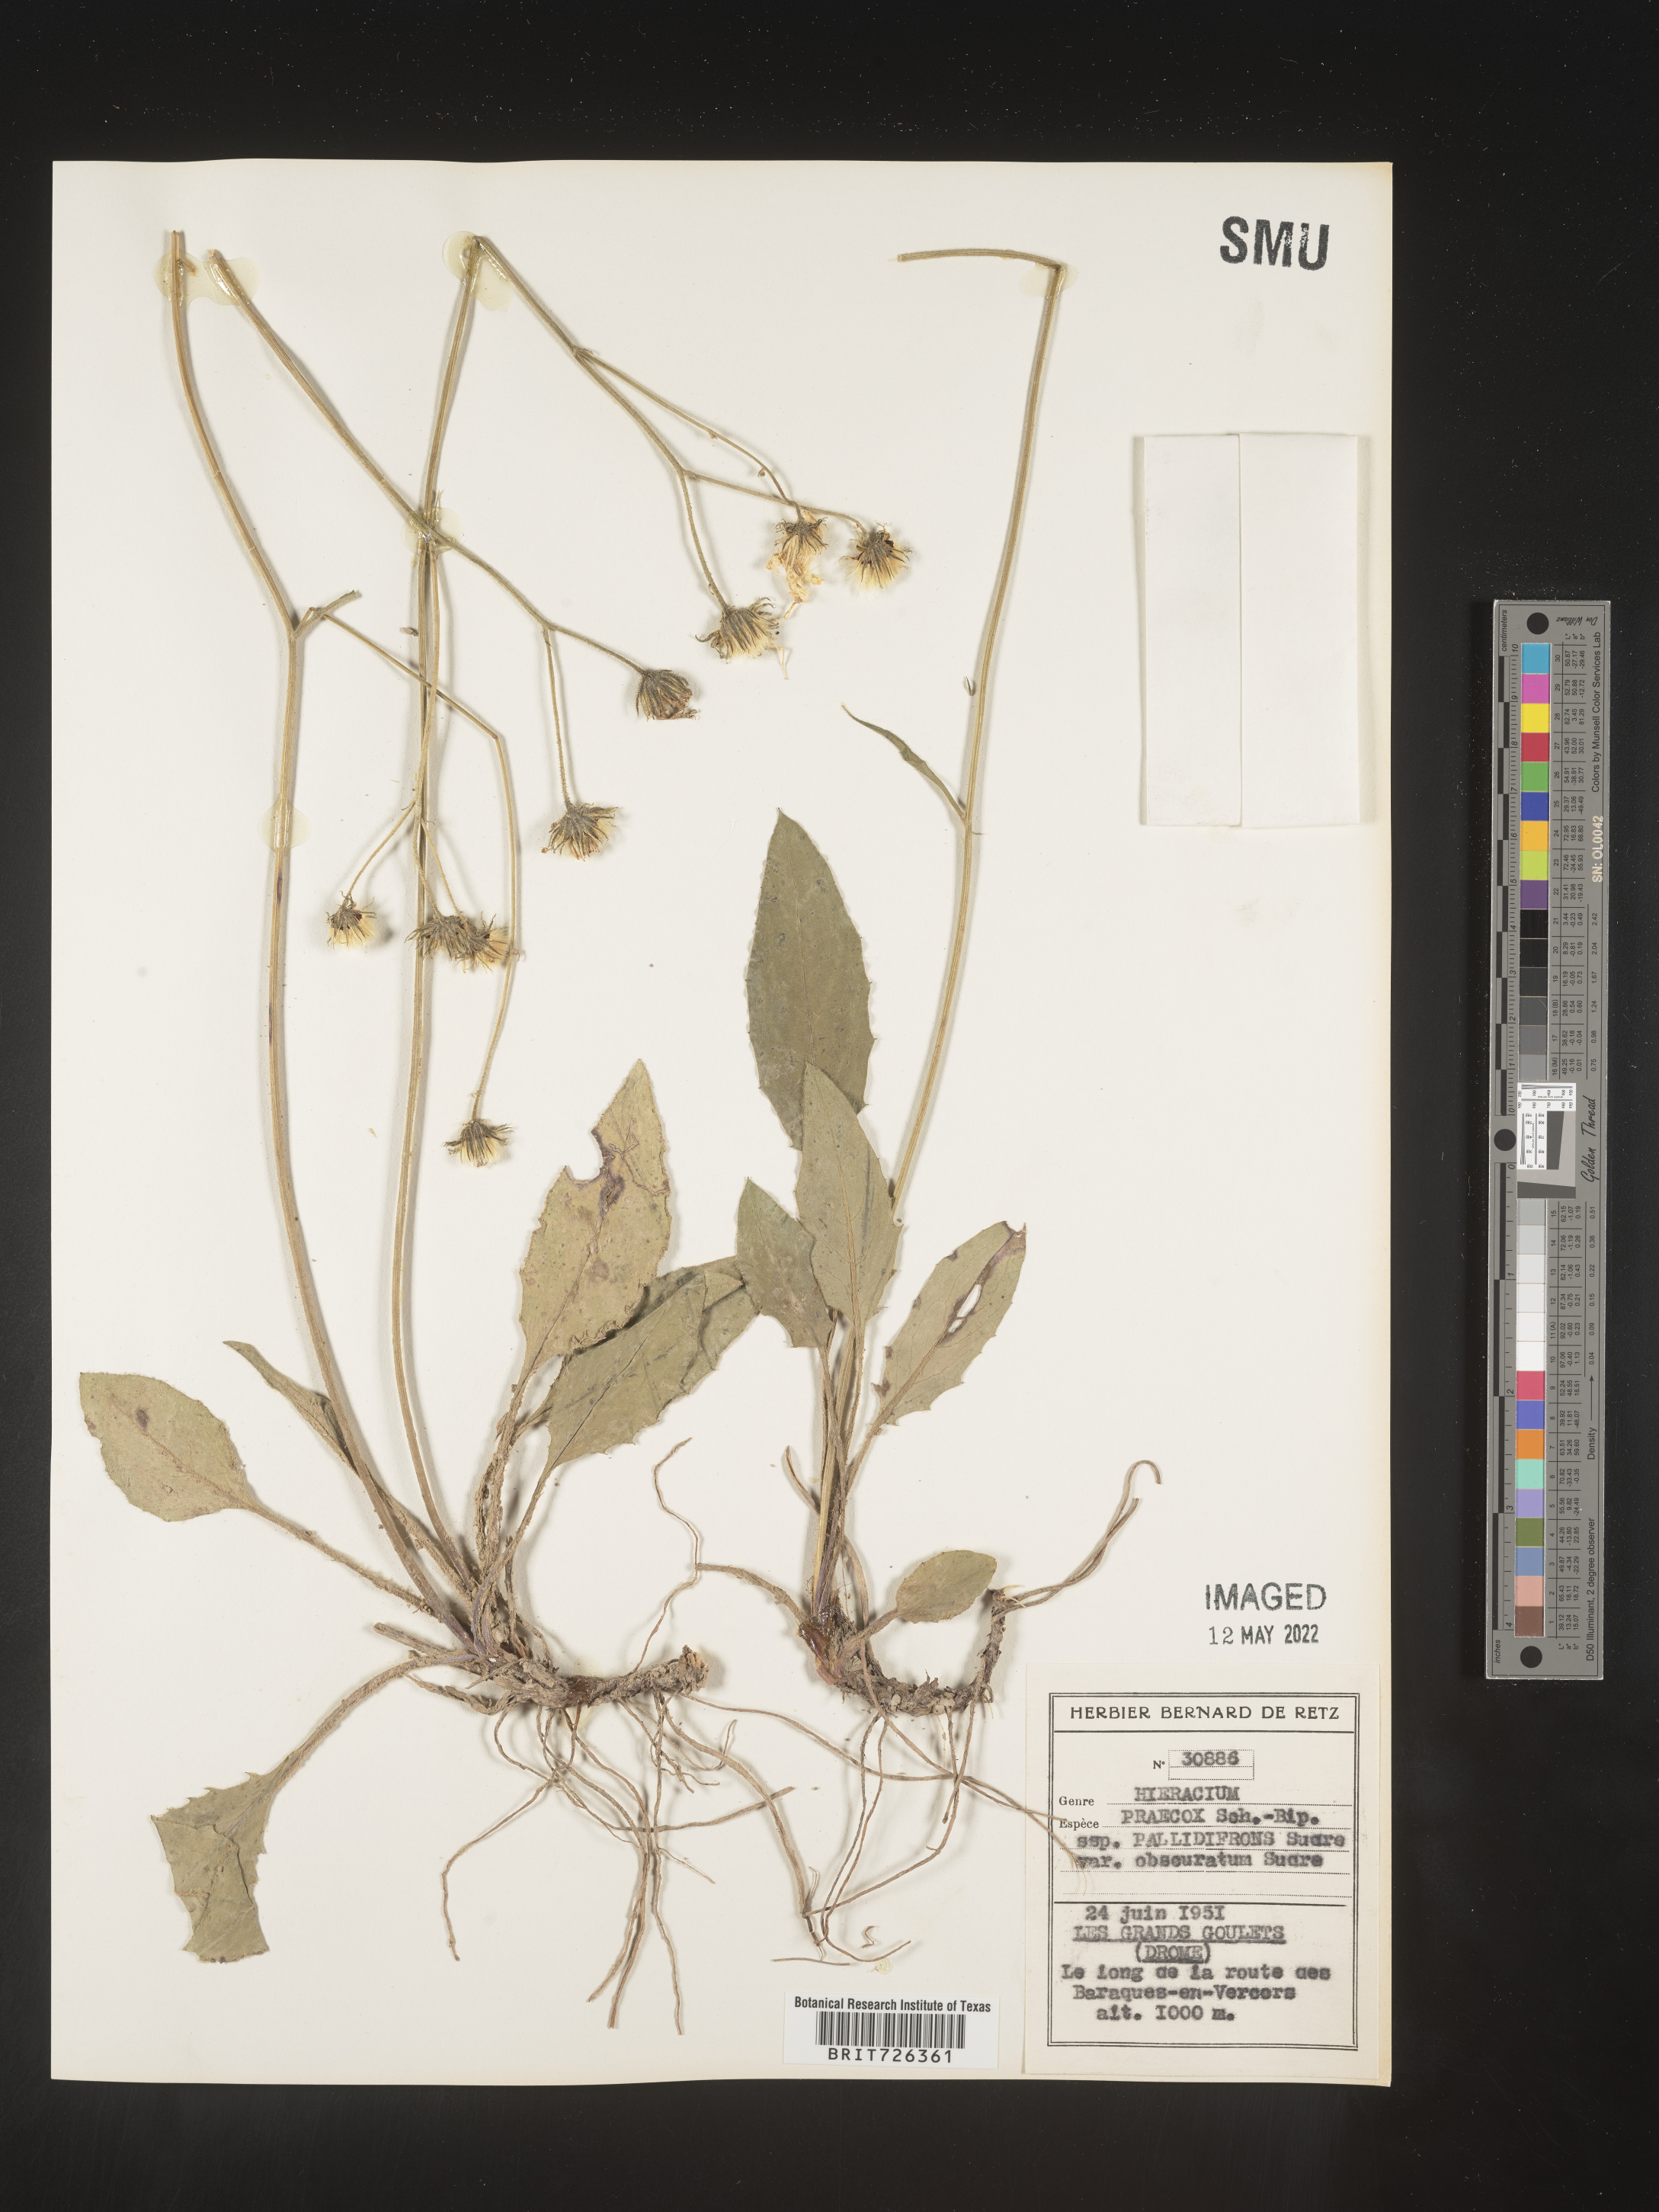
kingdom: Plantae
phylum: Tracheophyta
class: Magnoliopsida
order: Asterales
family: Asteraceae
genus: Hieracium
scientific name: Hieracium
